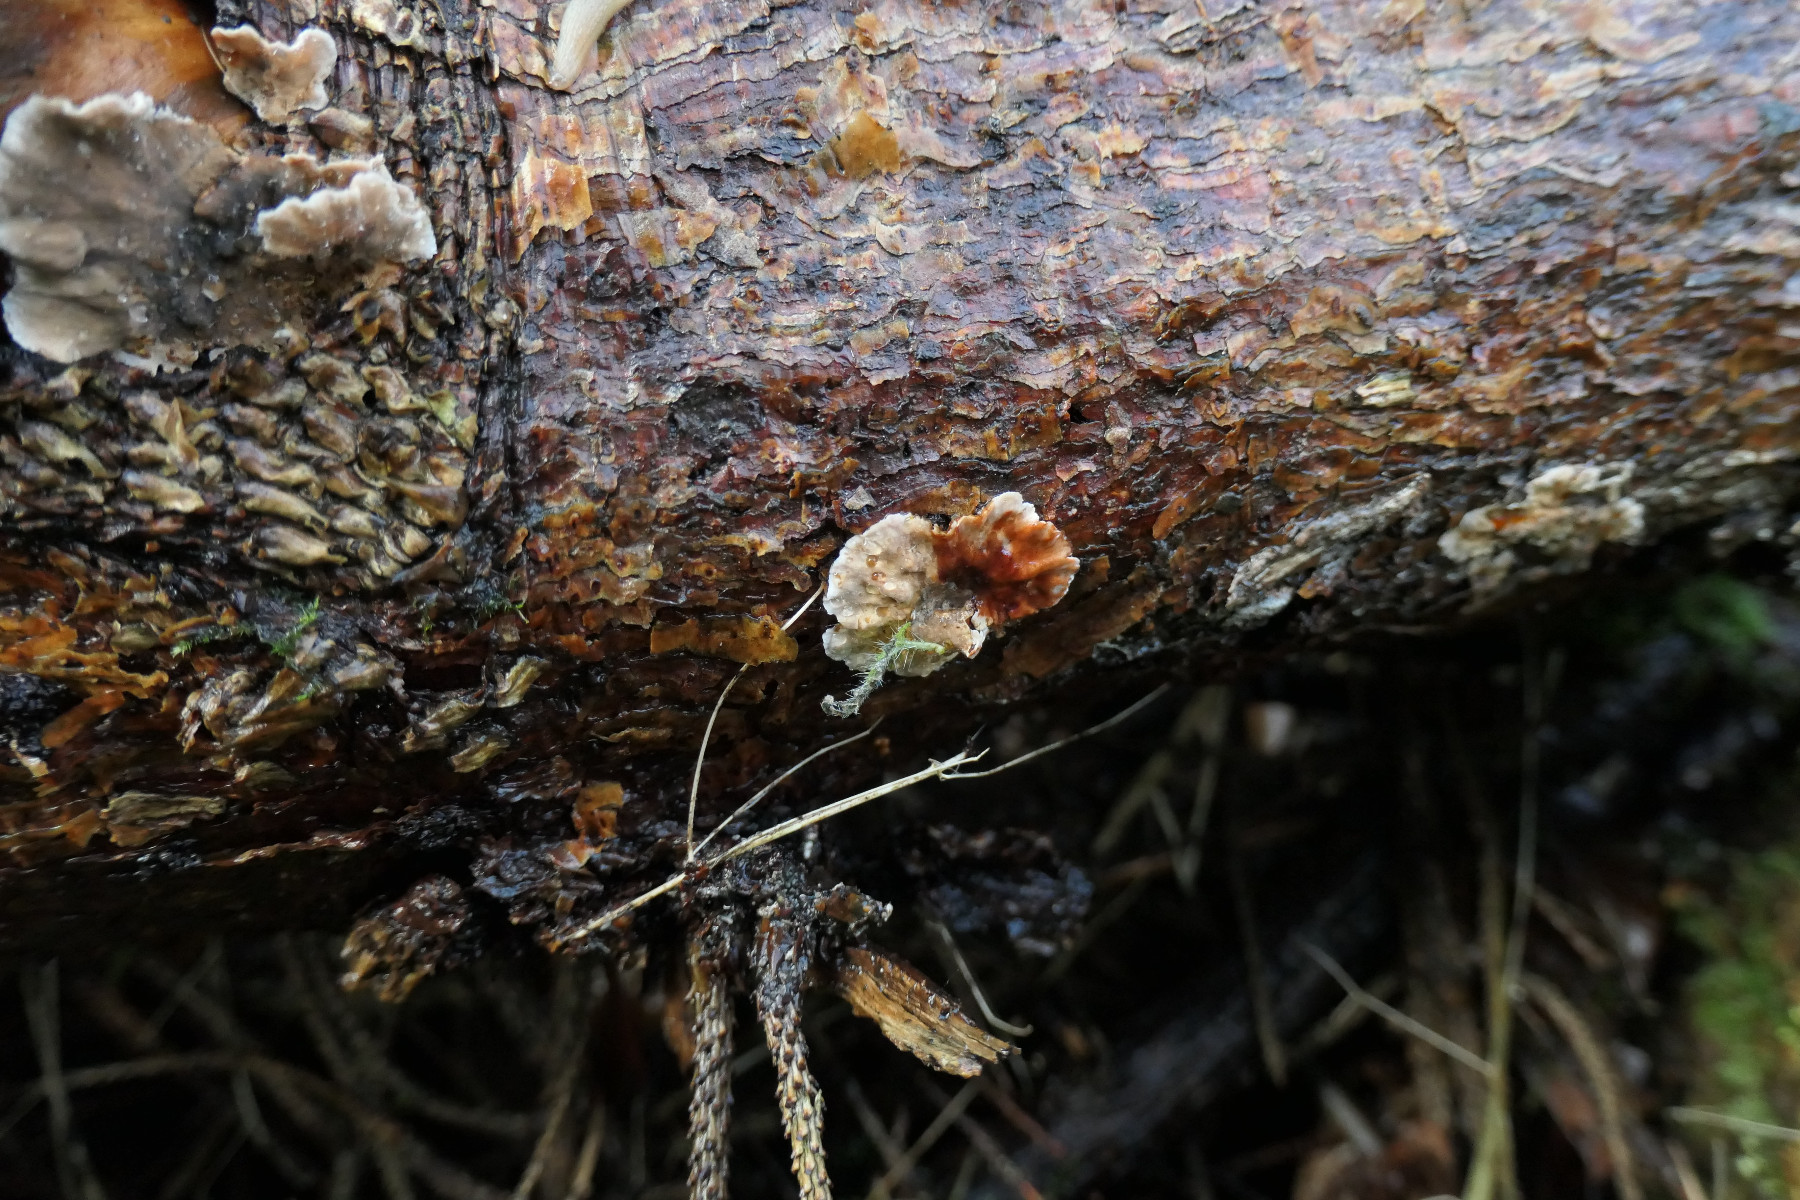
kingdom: Fungi
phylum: Basidiomycota
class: Agaricomycetes
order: Russulales
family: Stereaceae
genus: Stereum
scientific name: Stereum sanguinolentum
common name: blødende lædersvamp
